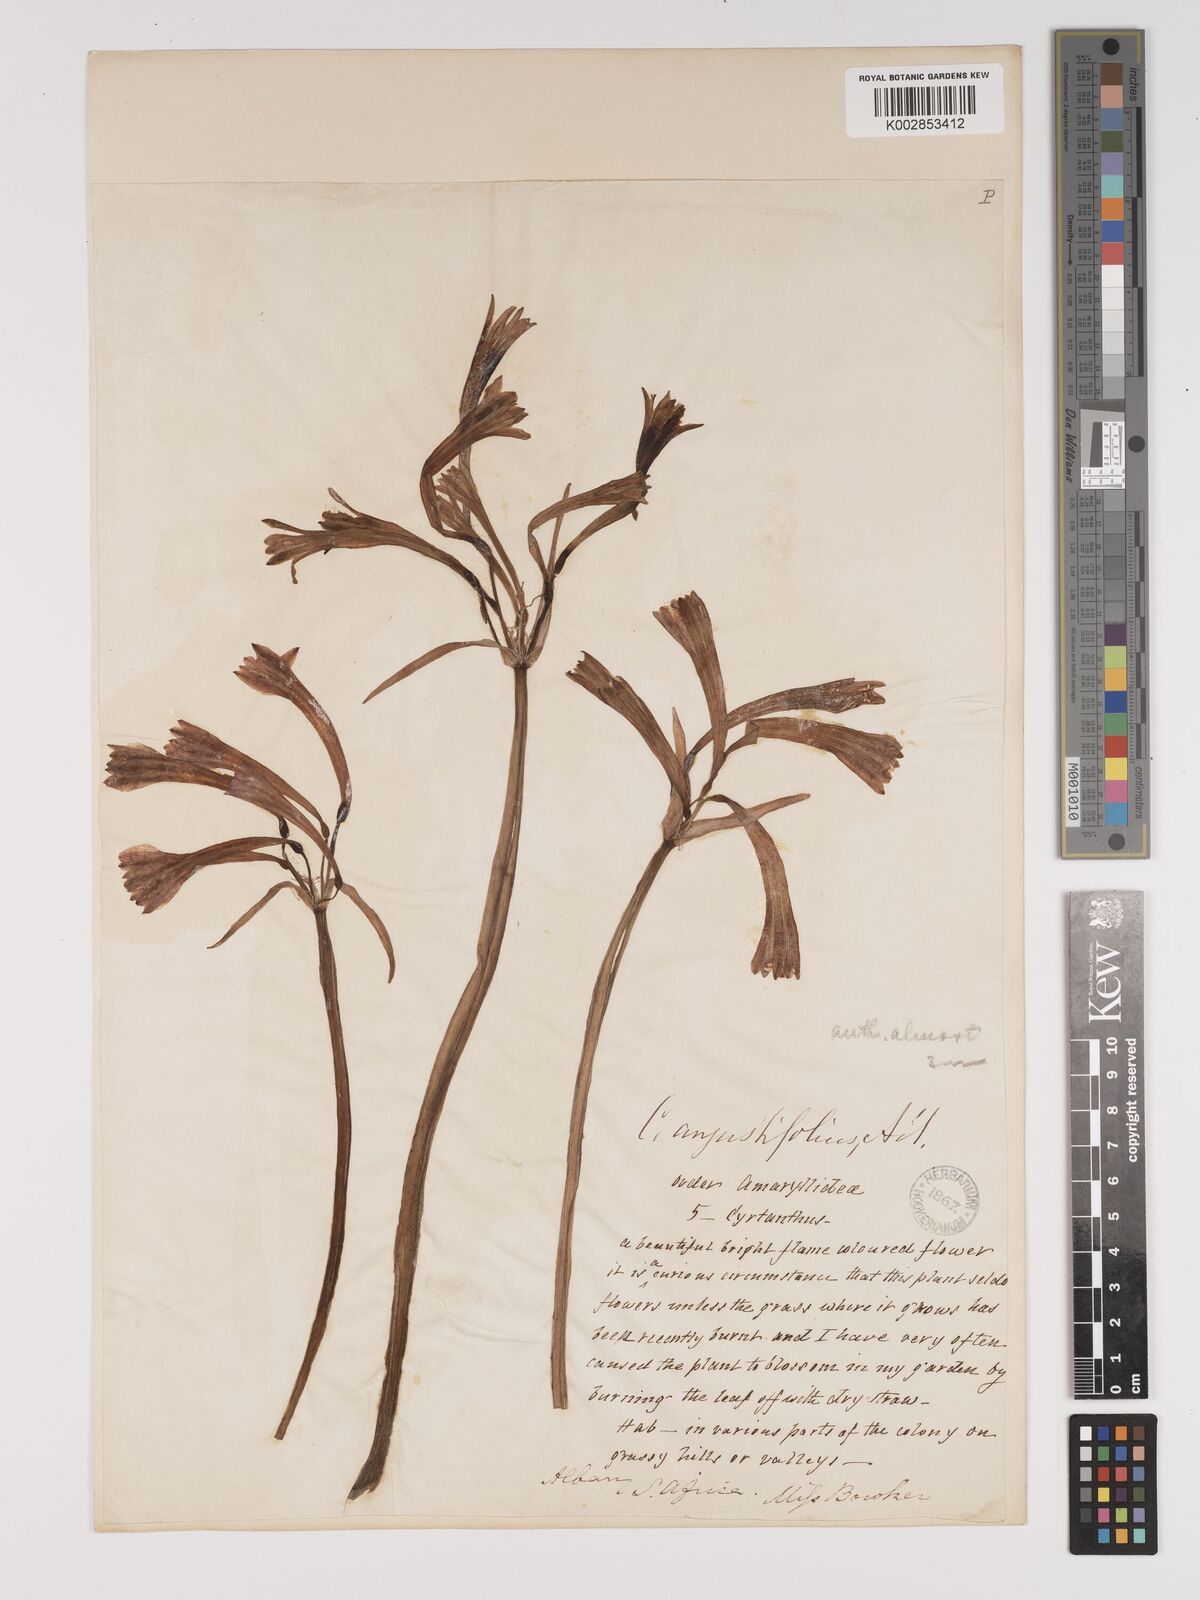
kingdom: Plantae
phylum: Tracheophyta
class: Liliopsida
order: Asparagales
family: Amaryllidaceae
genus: Cyrtanthus
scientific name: Cyrtanthus contractus
